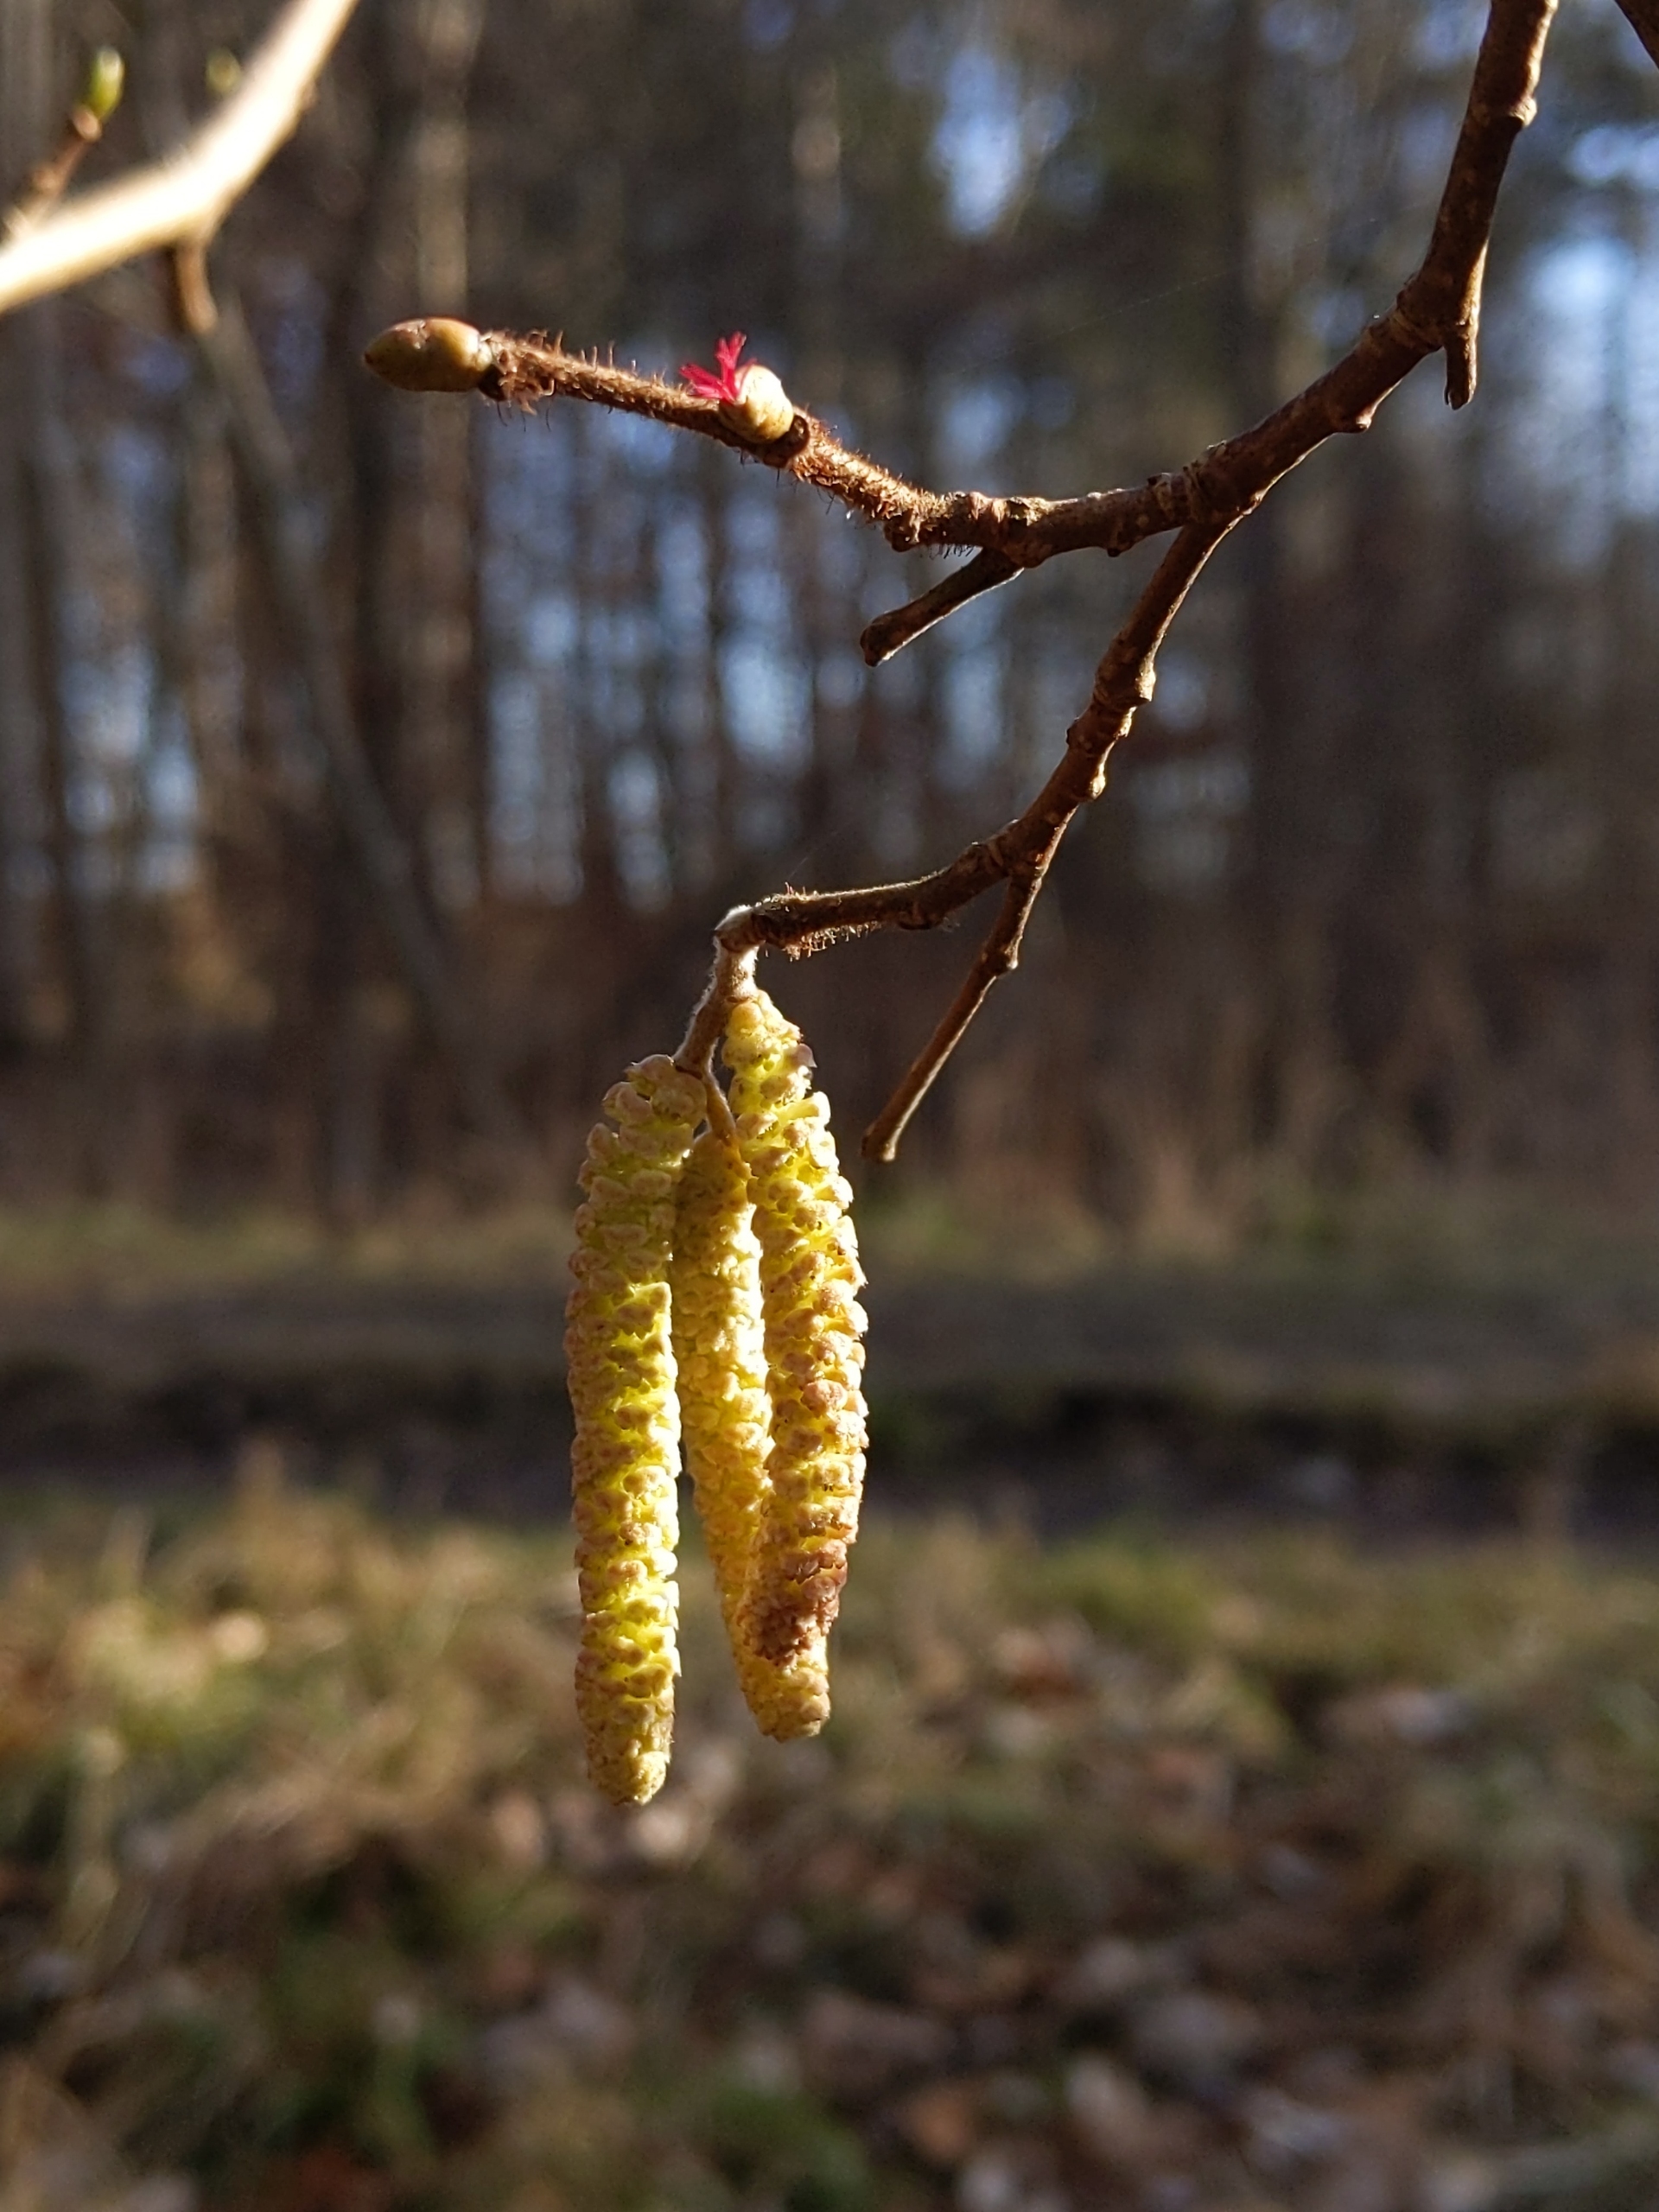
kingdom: Plantae
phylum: Tracheophyta
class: Magnoliopsida
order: Fagales
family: Betulaceae
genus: Corylus
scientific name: Corylus avellana
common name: Hassel
